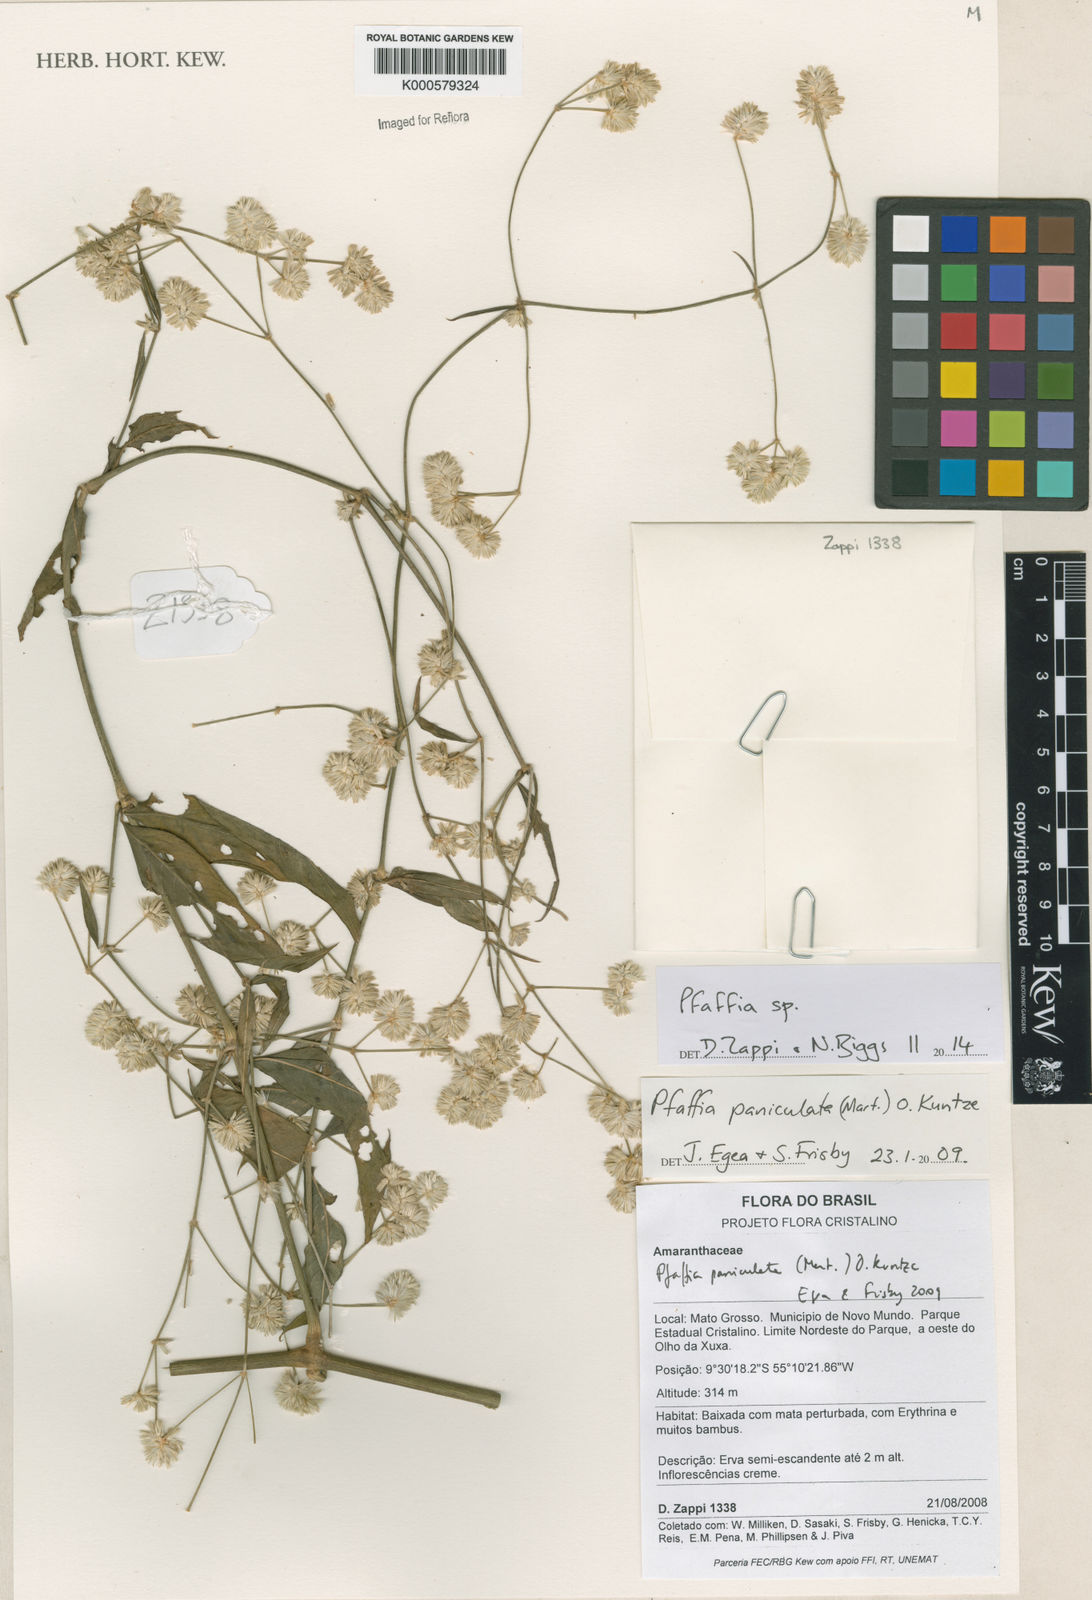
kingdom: Plantae
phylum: Tracheophyta
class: Magnoliopsida
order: Caryophyllales
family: Amaranthaceae
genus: Pfaffia
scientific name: Pfaffia
